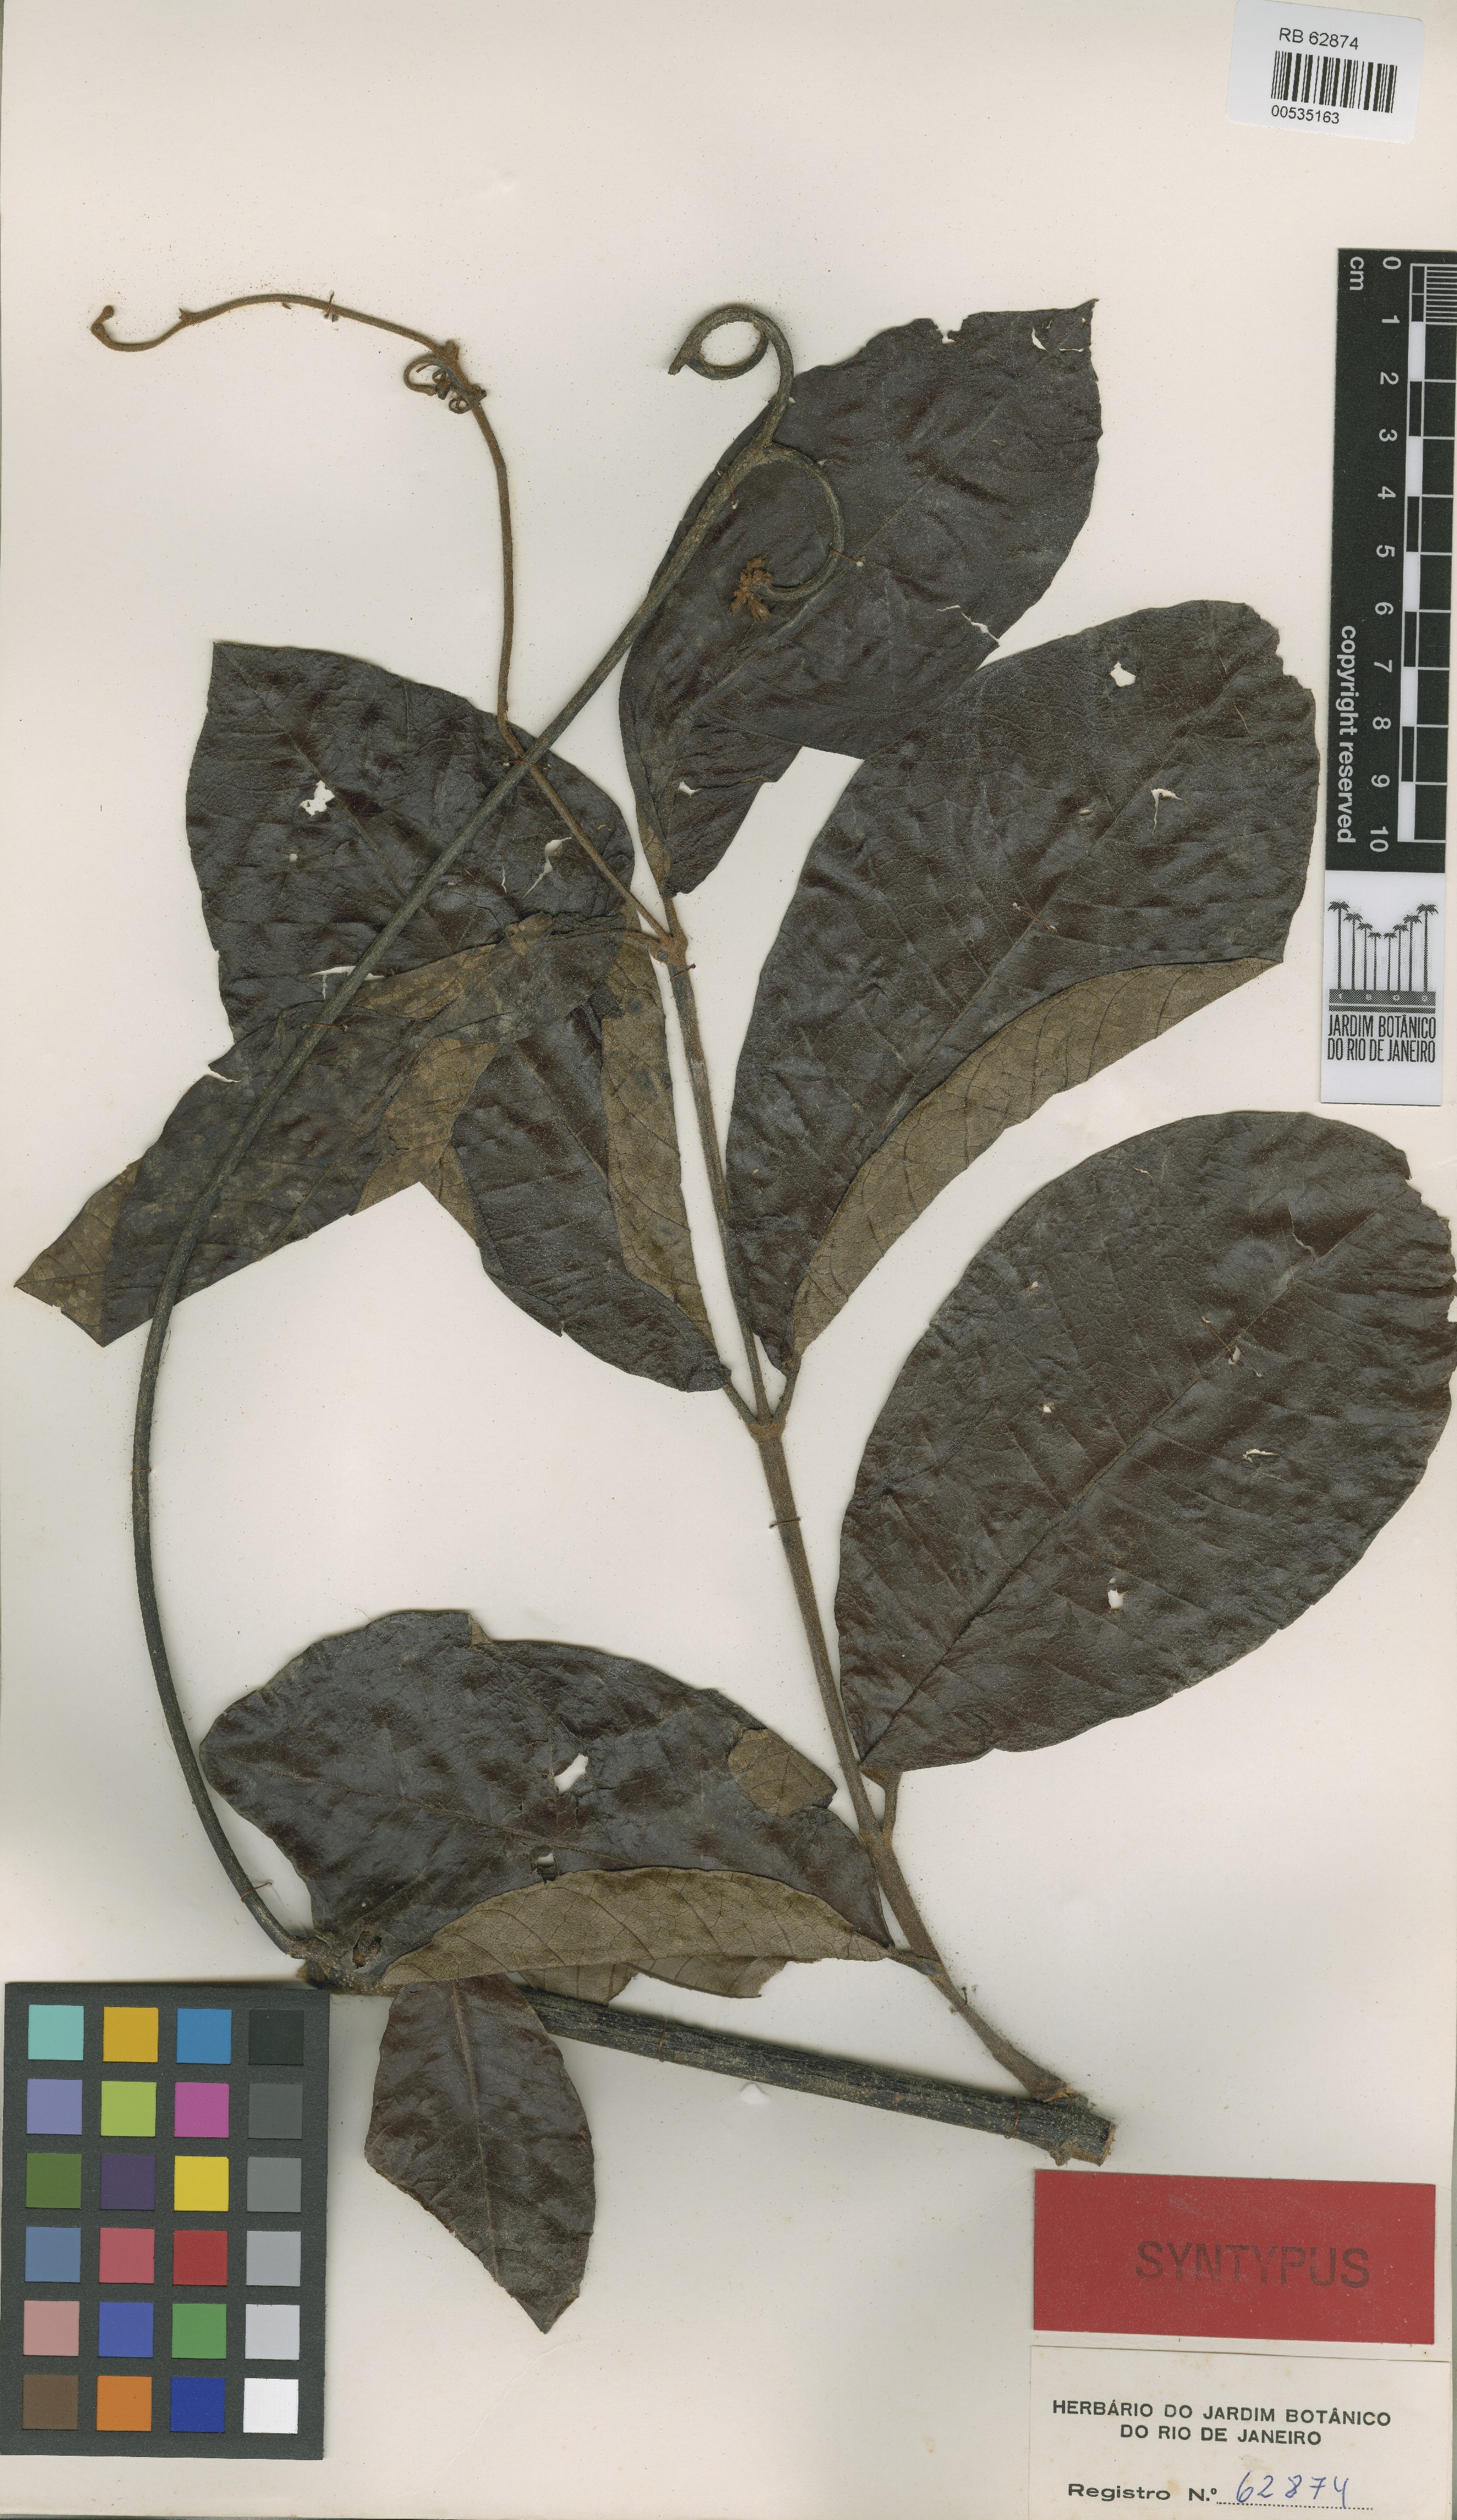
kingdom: Plantae
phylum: Tracheophyta
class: Magnoliopsida
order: Gentianales
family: Apocynaceae
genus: Pacouria
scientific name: Pacouria boliviensis
